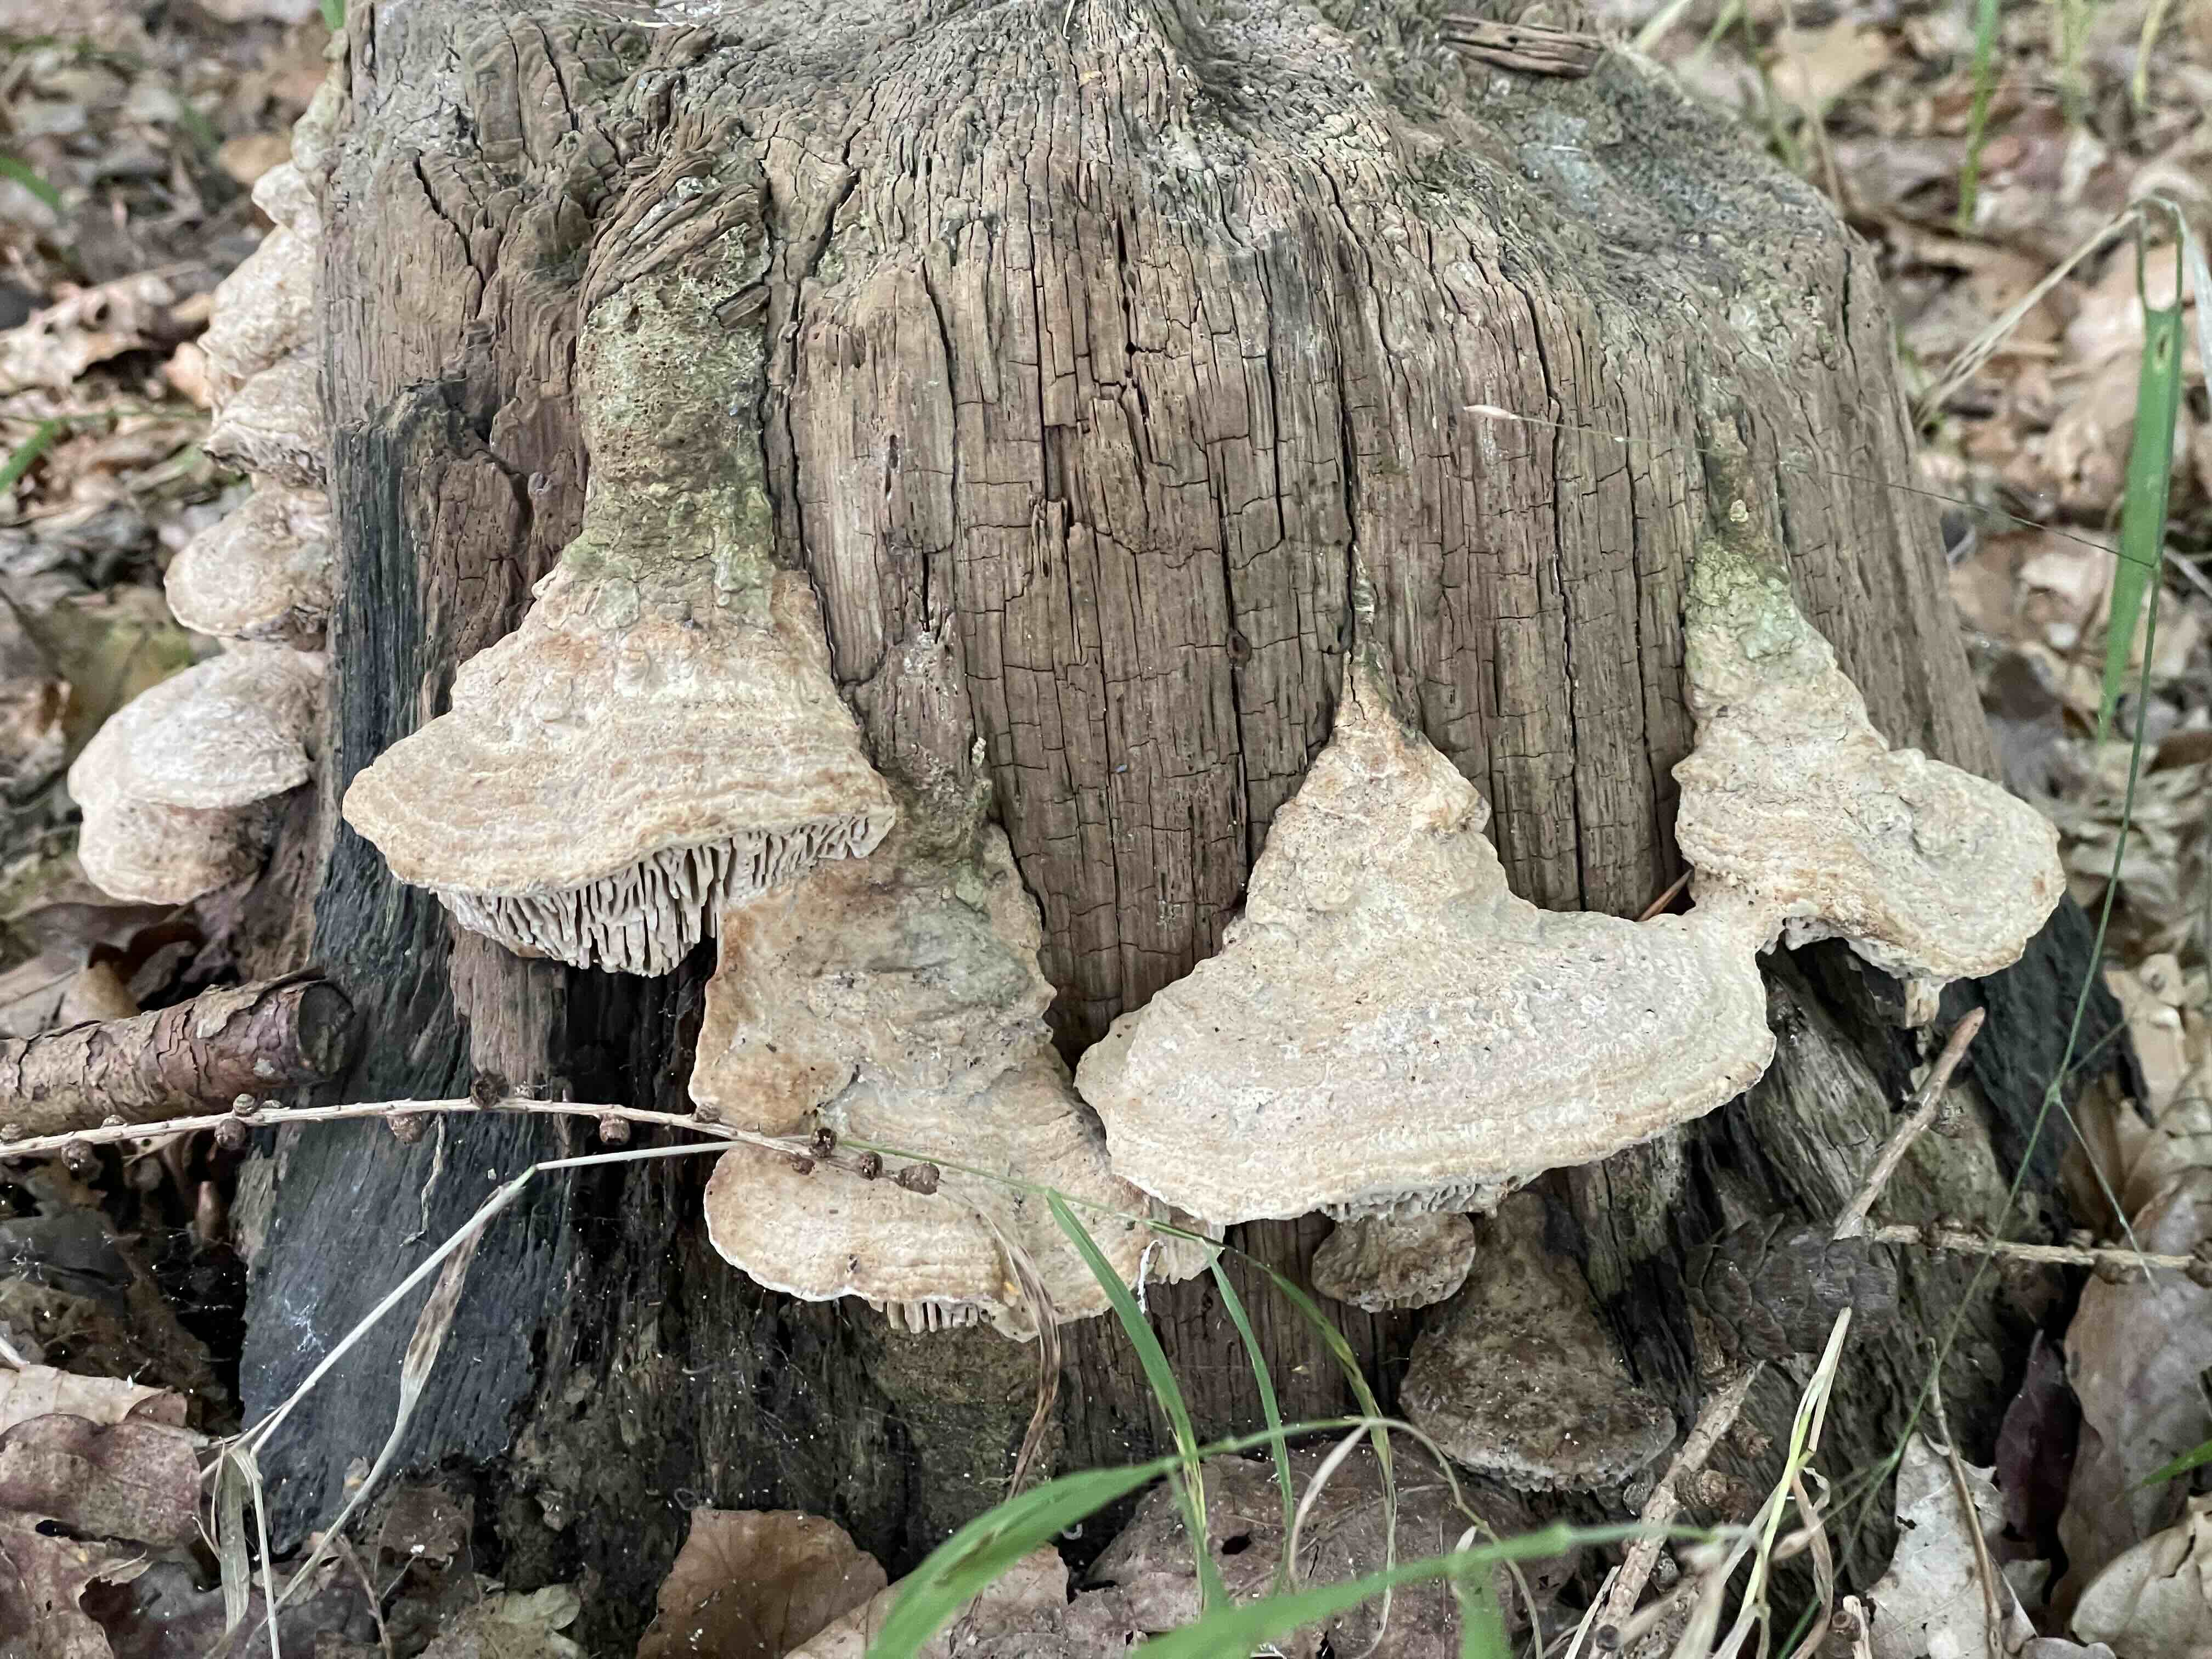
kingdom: Fungi
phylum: Basidiomycota
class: Agaricomycetes
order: Polyporales
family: Fomitopsidaceae
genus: Daedalea
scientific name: Daedalea quercina
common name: ege-labyrintsvamp
